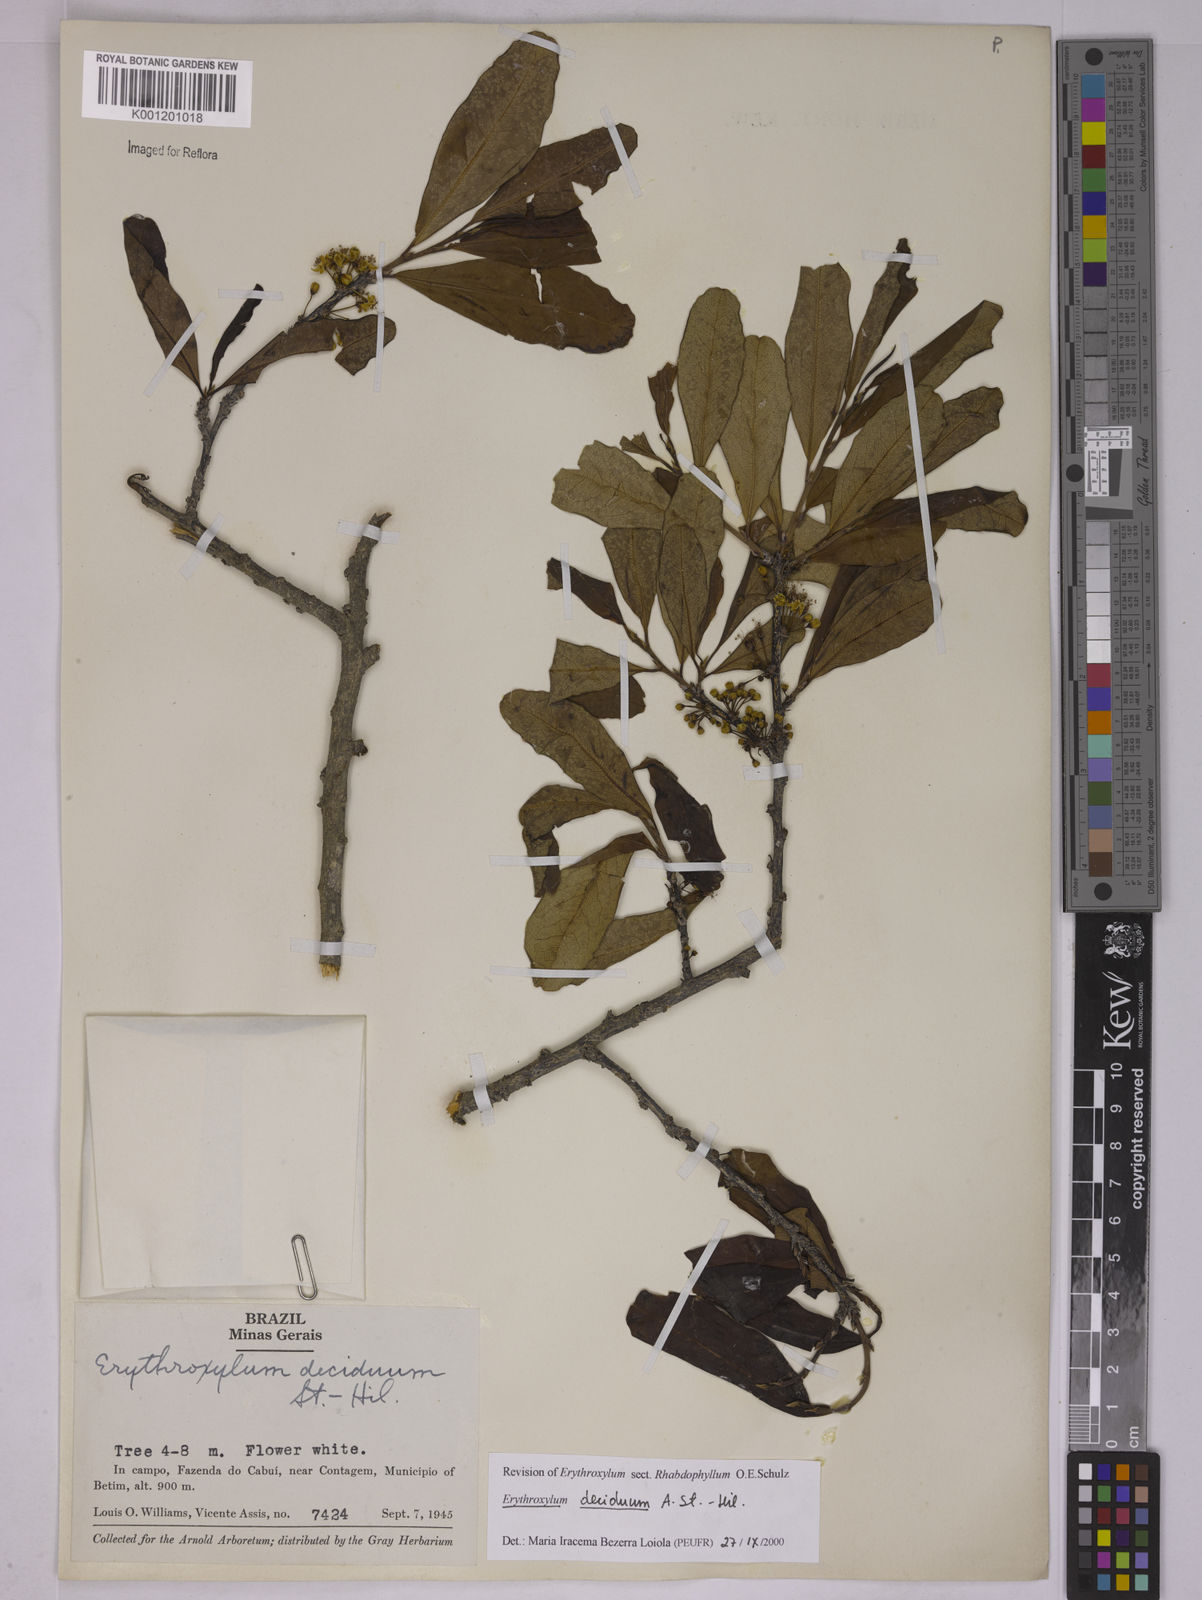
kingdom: Plantae
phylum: Tracheophyta
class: Magnoliopsida
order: Malpighiales
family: Erythroxylaceae
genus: Erythroxylum
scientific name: Erythroxylum deciduum
